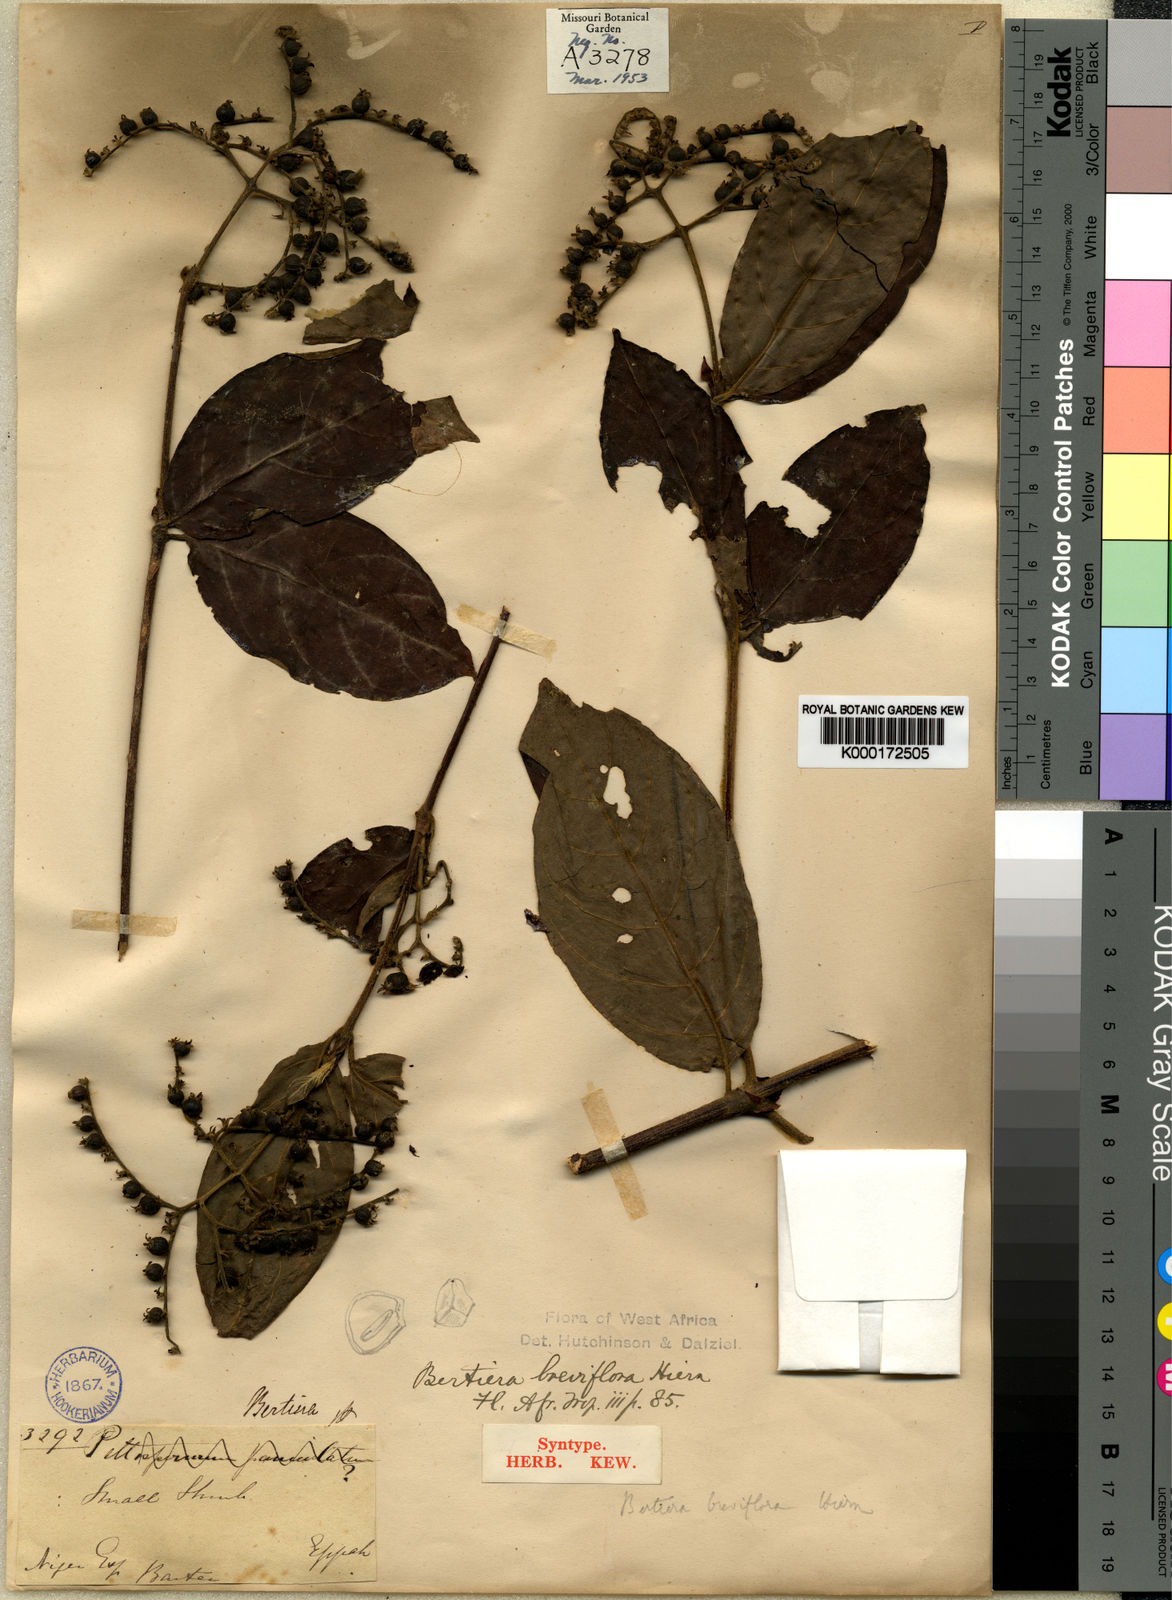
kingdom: Plantae
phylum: Tracheophyta
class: Magnoliopsida
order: Gentianales
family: Rubiaceae
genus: Bertiera
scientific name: Bertiera breviflora
